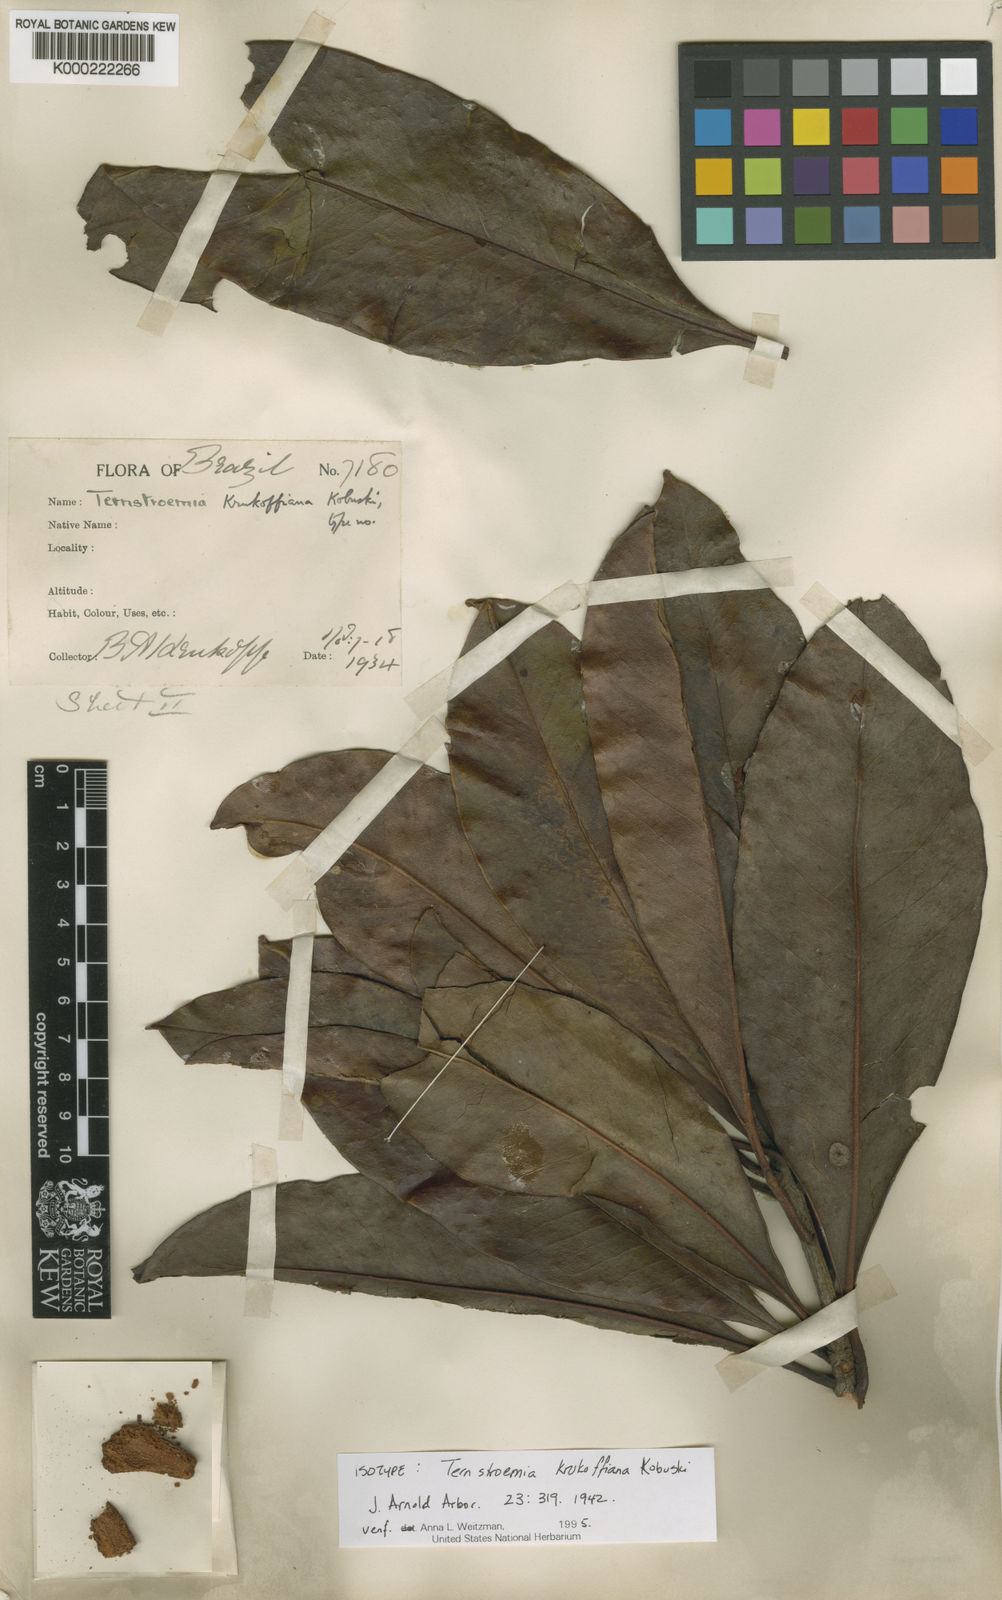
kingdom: Plantae
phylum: Tracheophyta
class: Magnoliopsida
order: Ericales
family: Pentaphylacaceae
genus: Ternstroemia
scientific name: Ternstroemia krukoffiana
